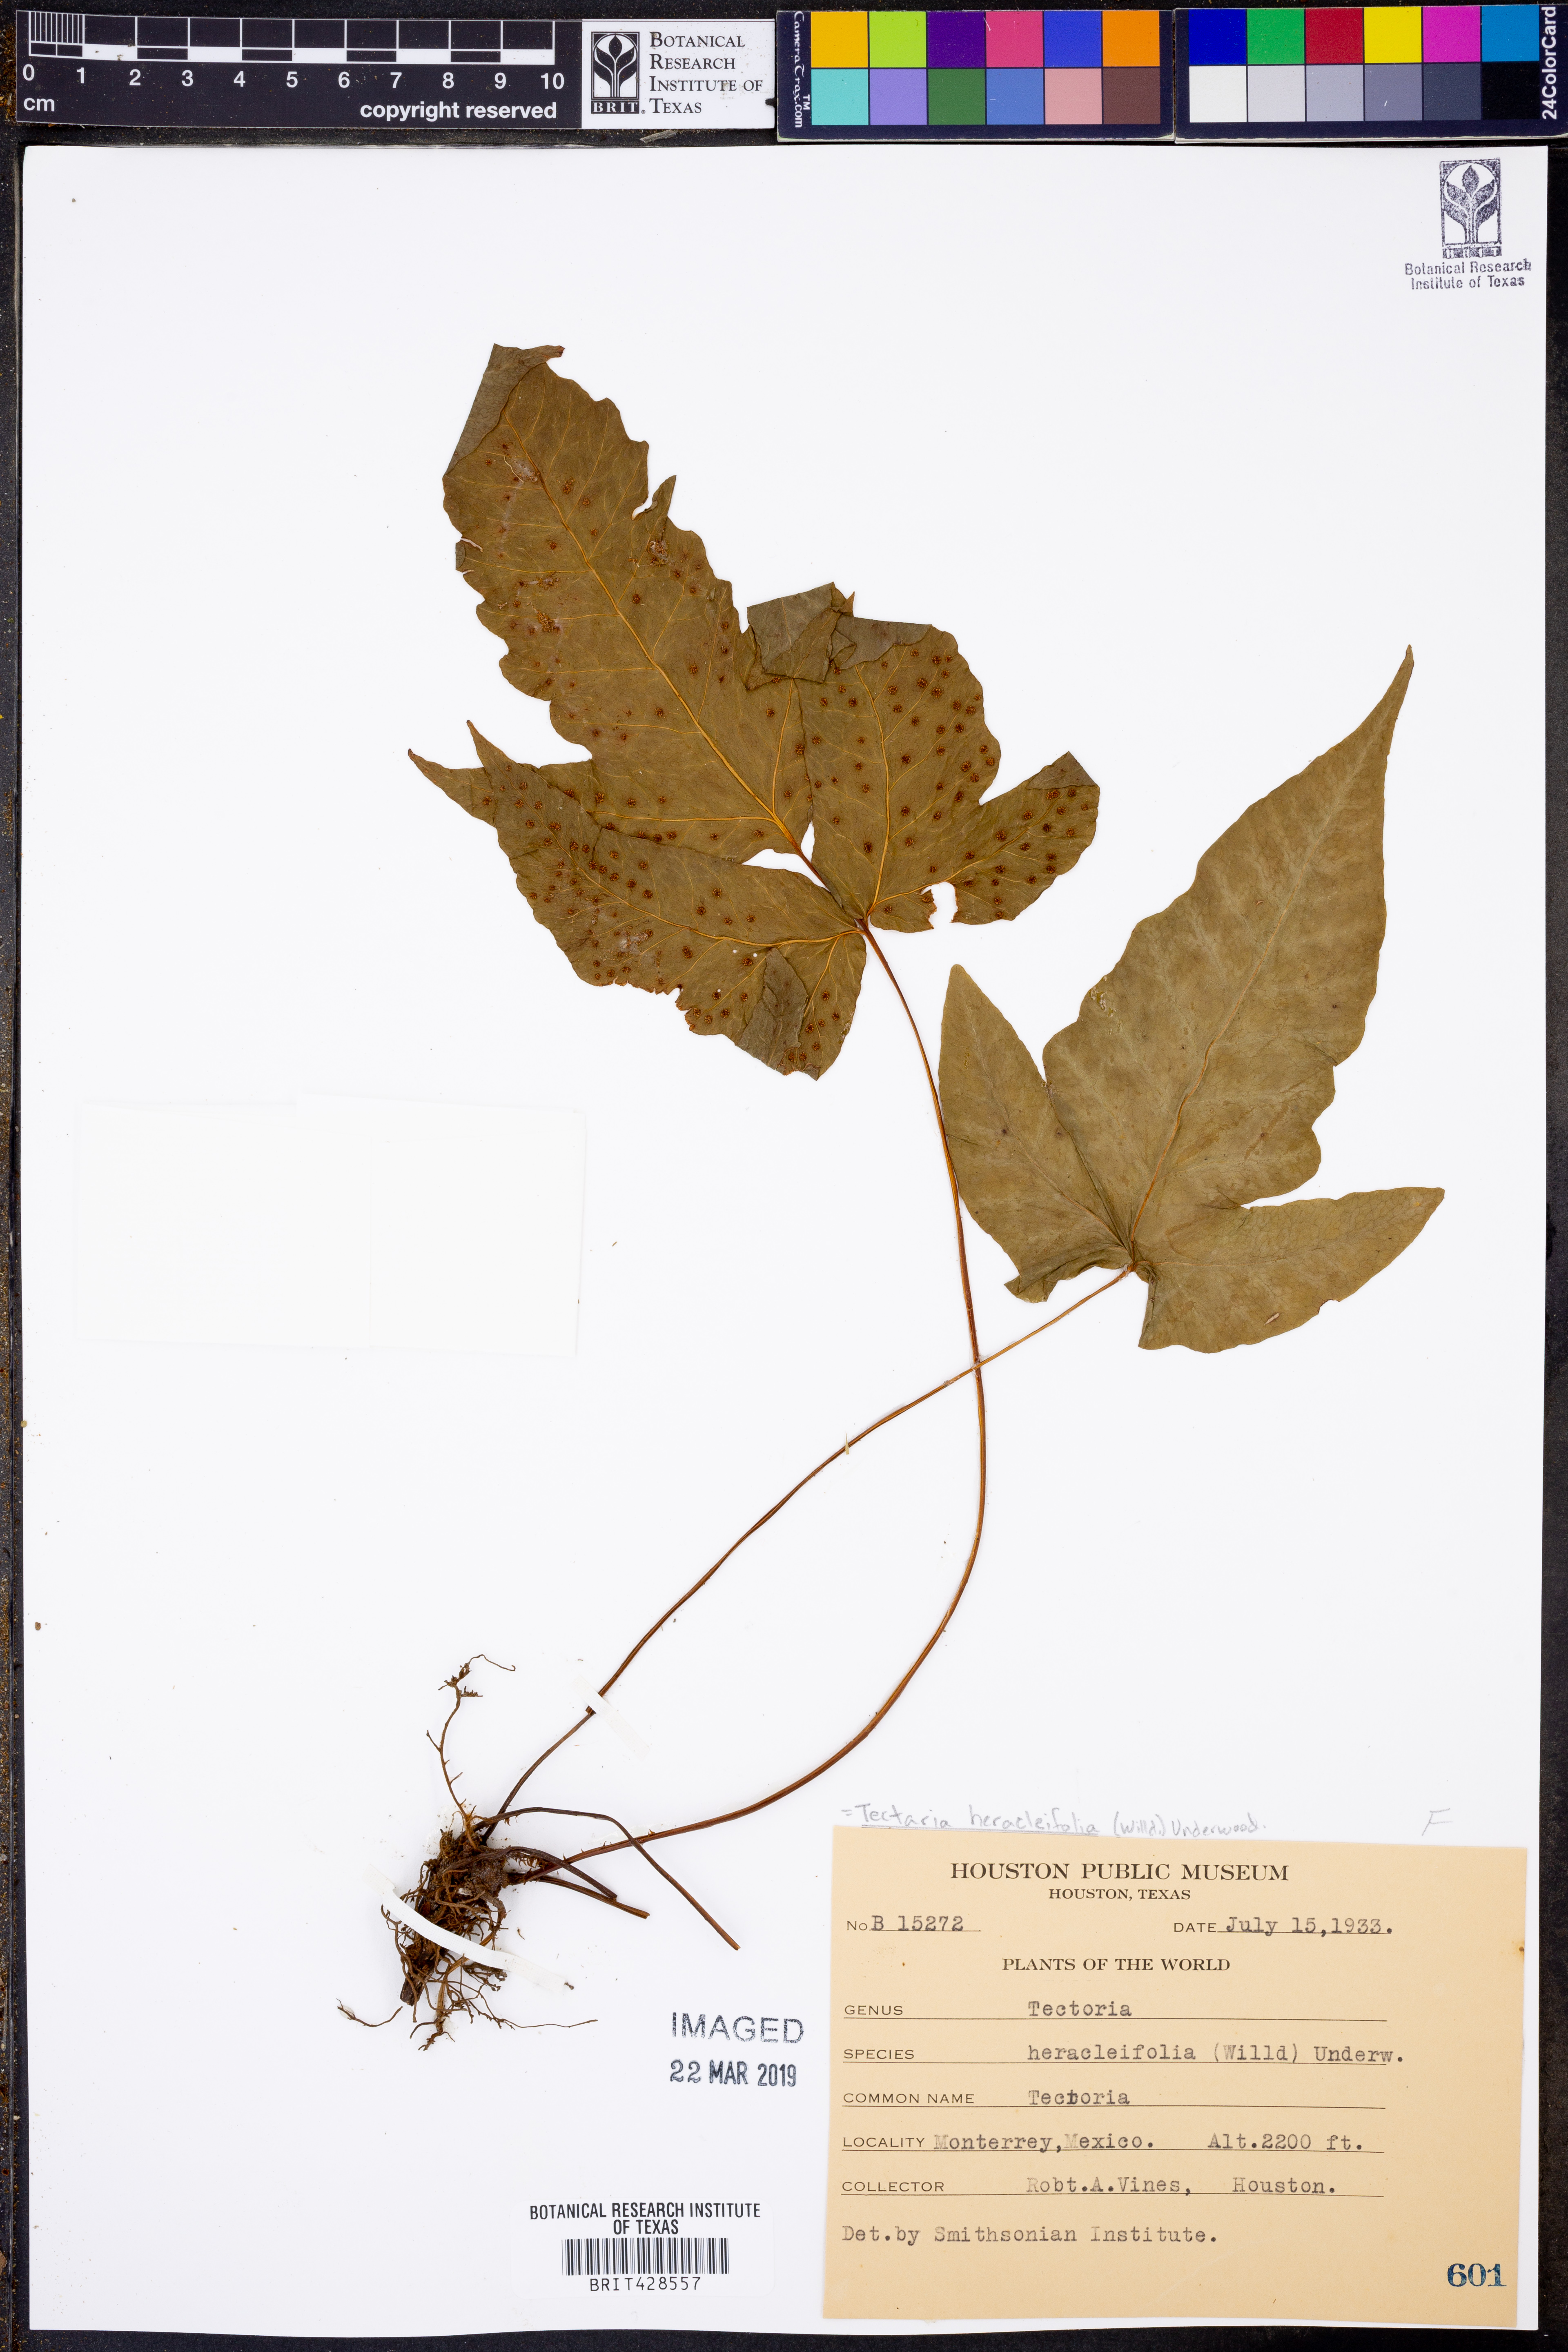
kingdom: Plantae
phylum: Tracheophyta
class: Polypodiopsida
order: Polypodiales
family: Tectariaceae
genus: Tectaria
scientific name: Tectaria heracleifolia
